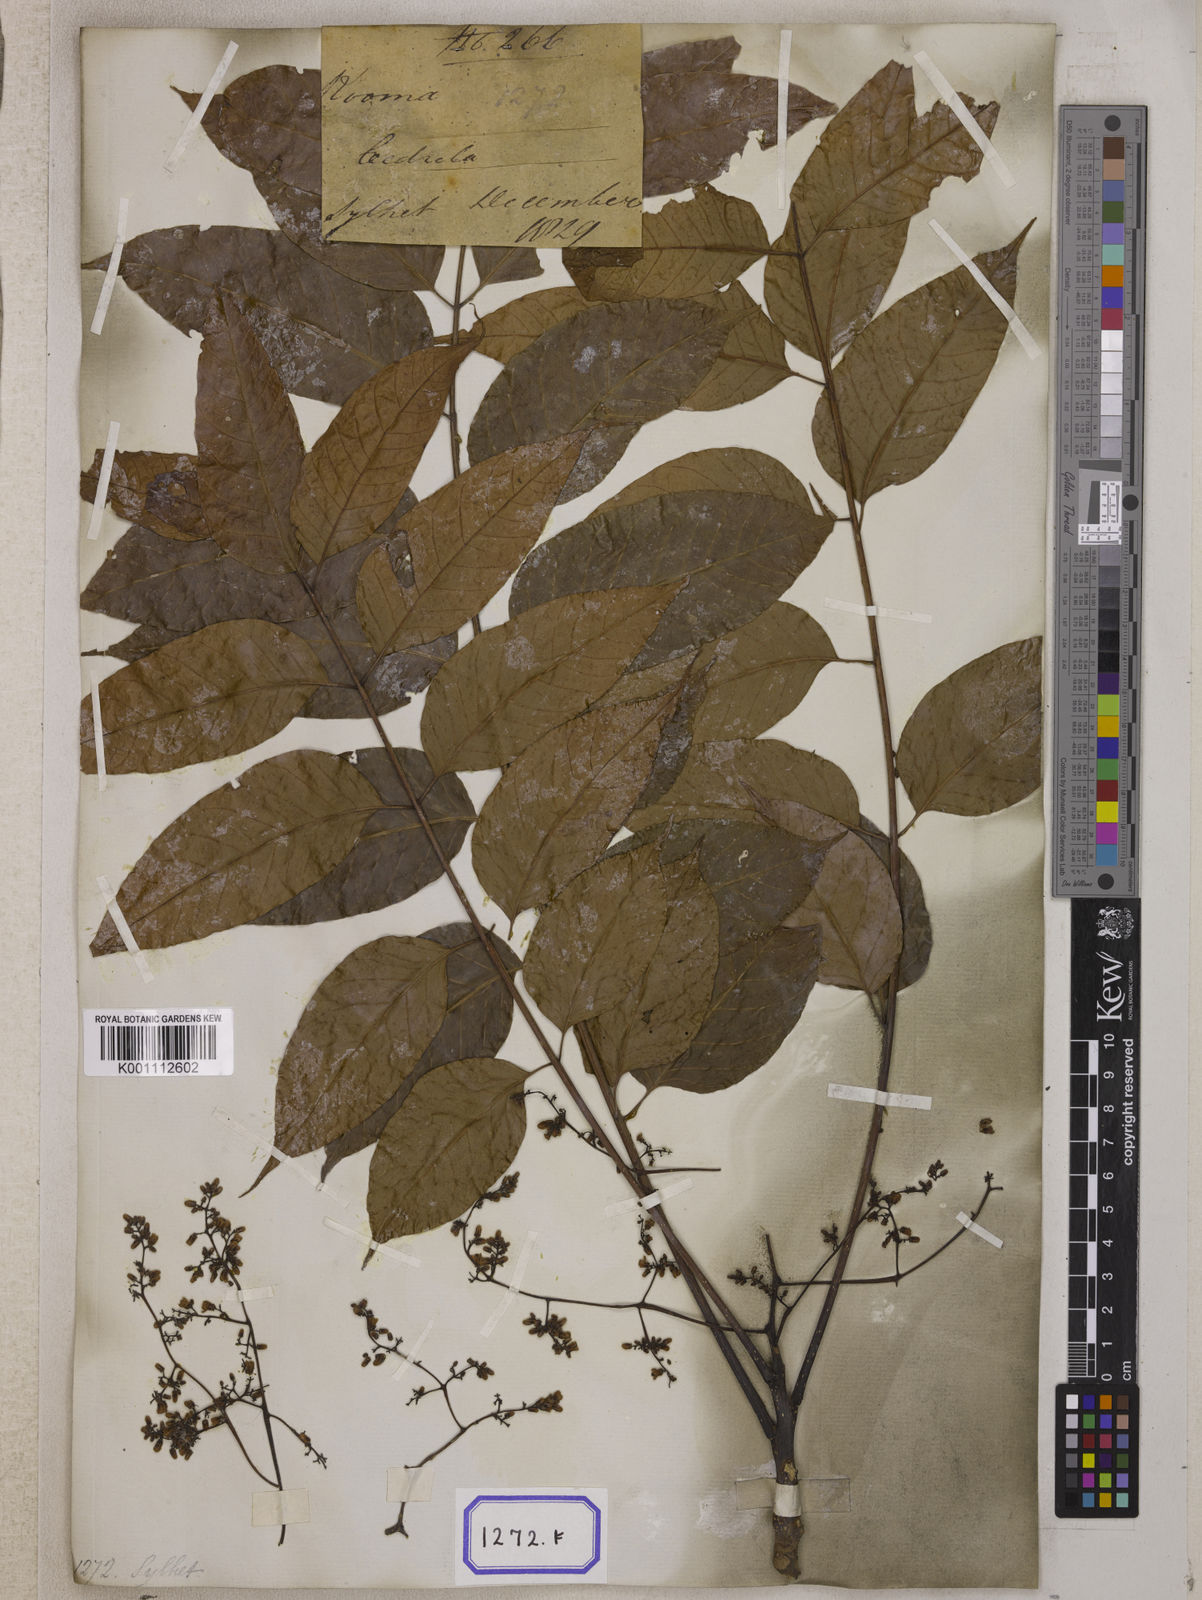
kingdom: Plantae
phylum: Tracheophyta
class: Magnoliopsida
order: Sapindales
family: Meliaceae
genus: Cedrela
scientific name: Cedrela
